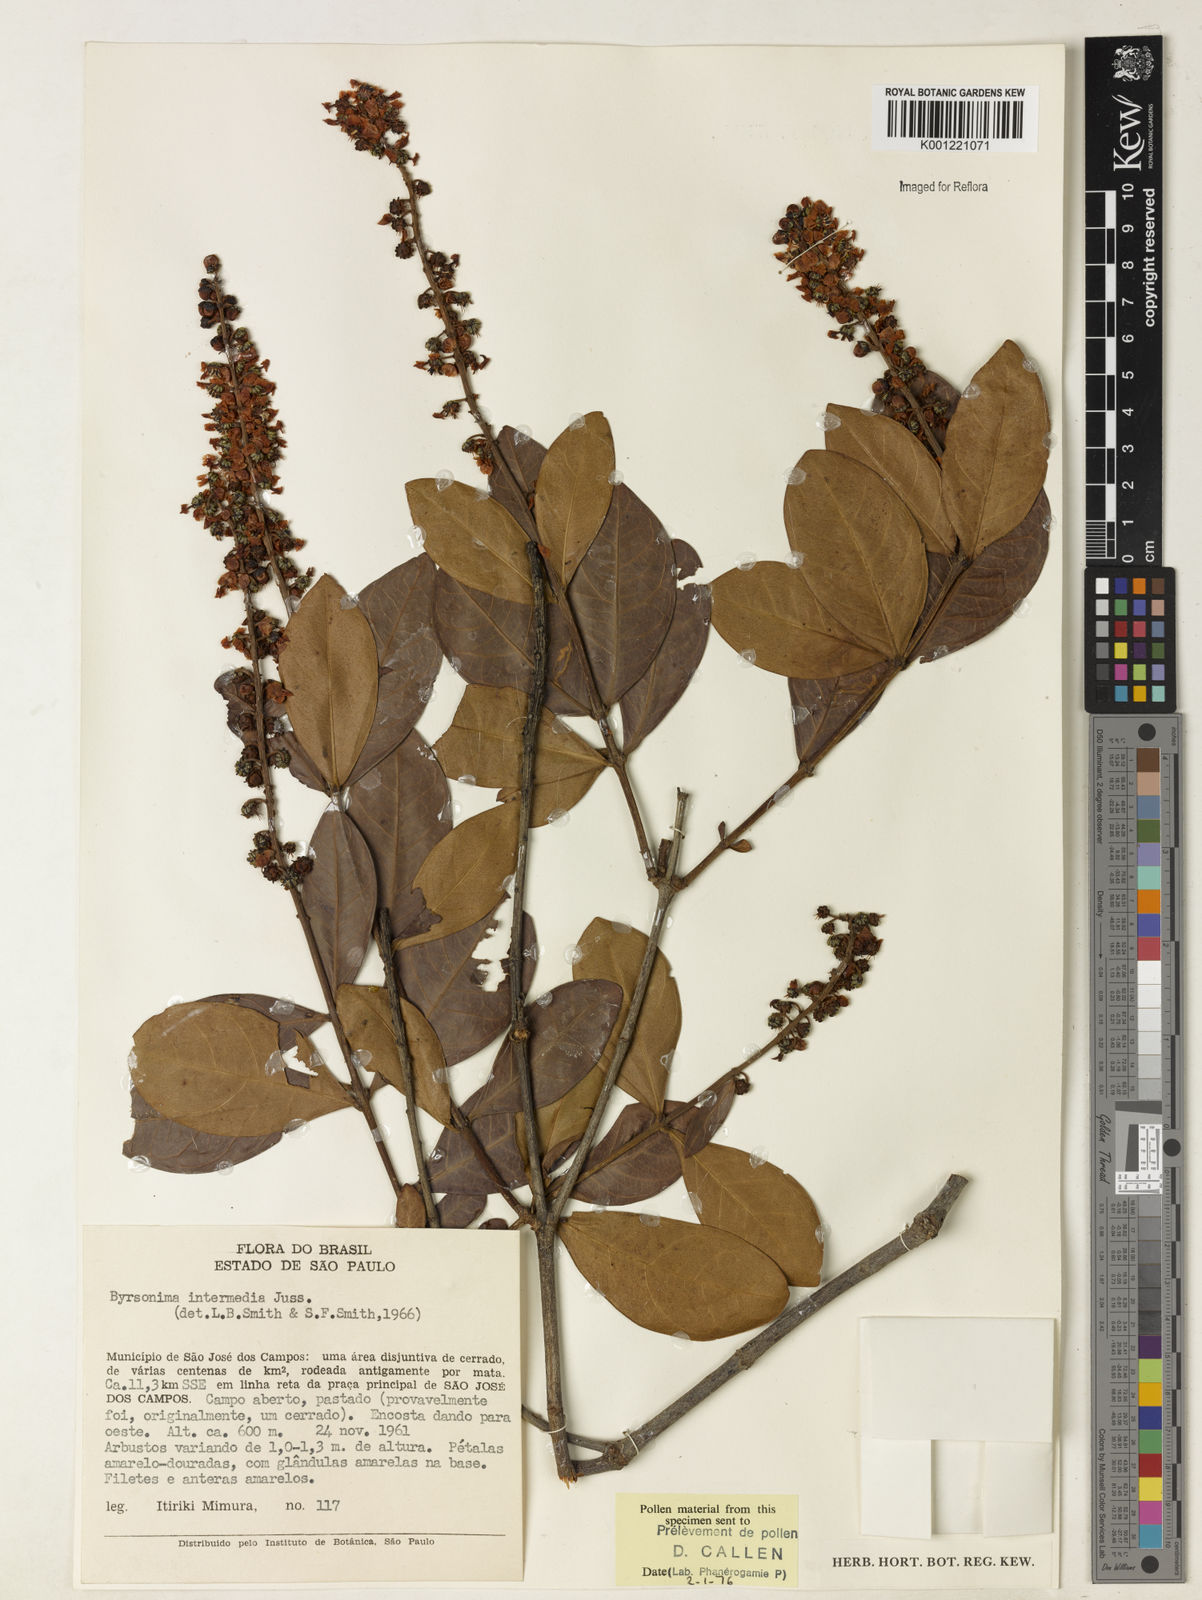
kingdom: Plantae
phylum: Tracheophyta
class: Magnoliopsida
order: Malpighiales
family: Malpighiaceae
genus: Byrsonima
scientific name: Byrsonima intermedia
